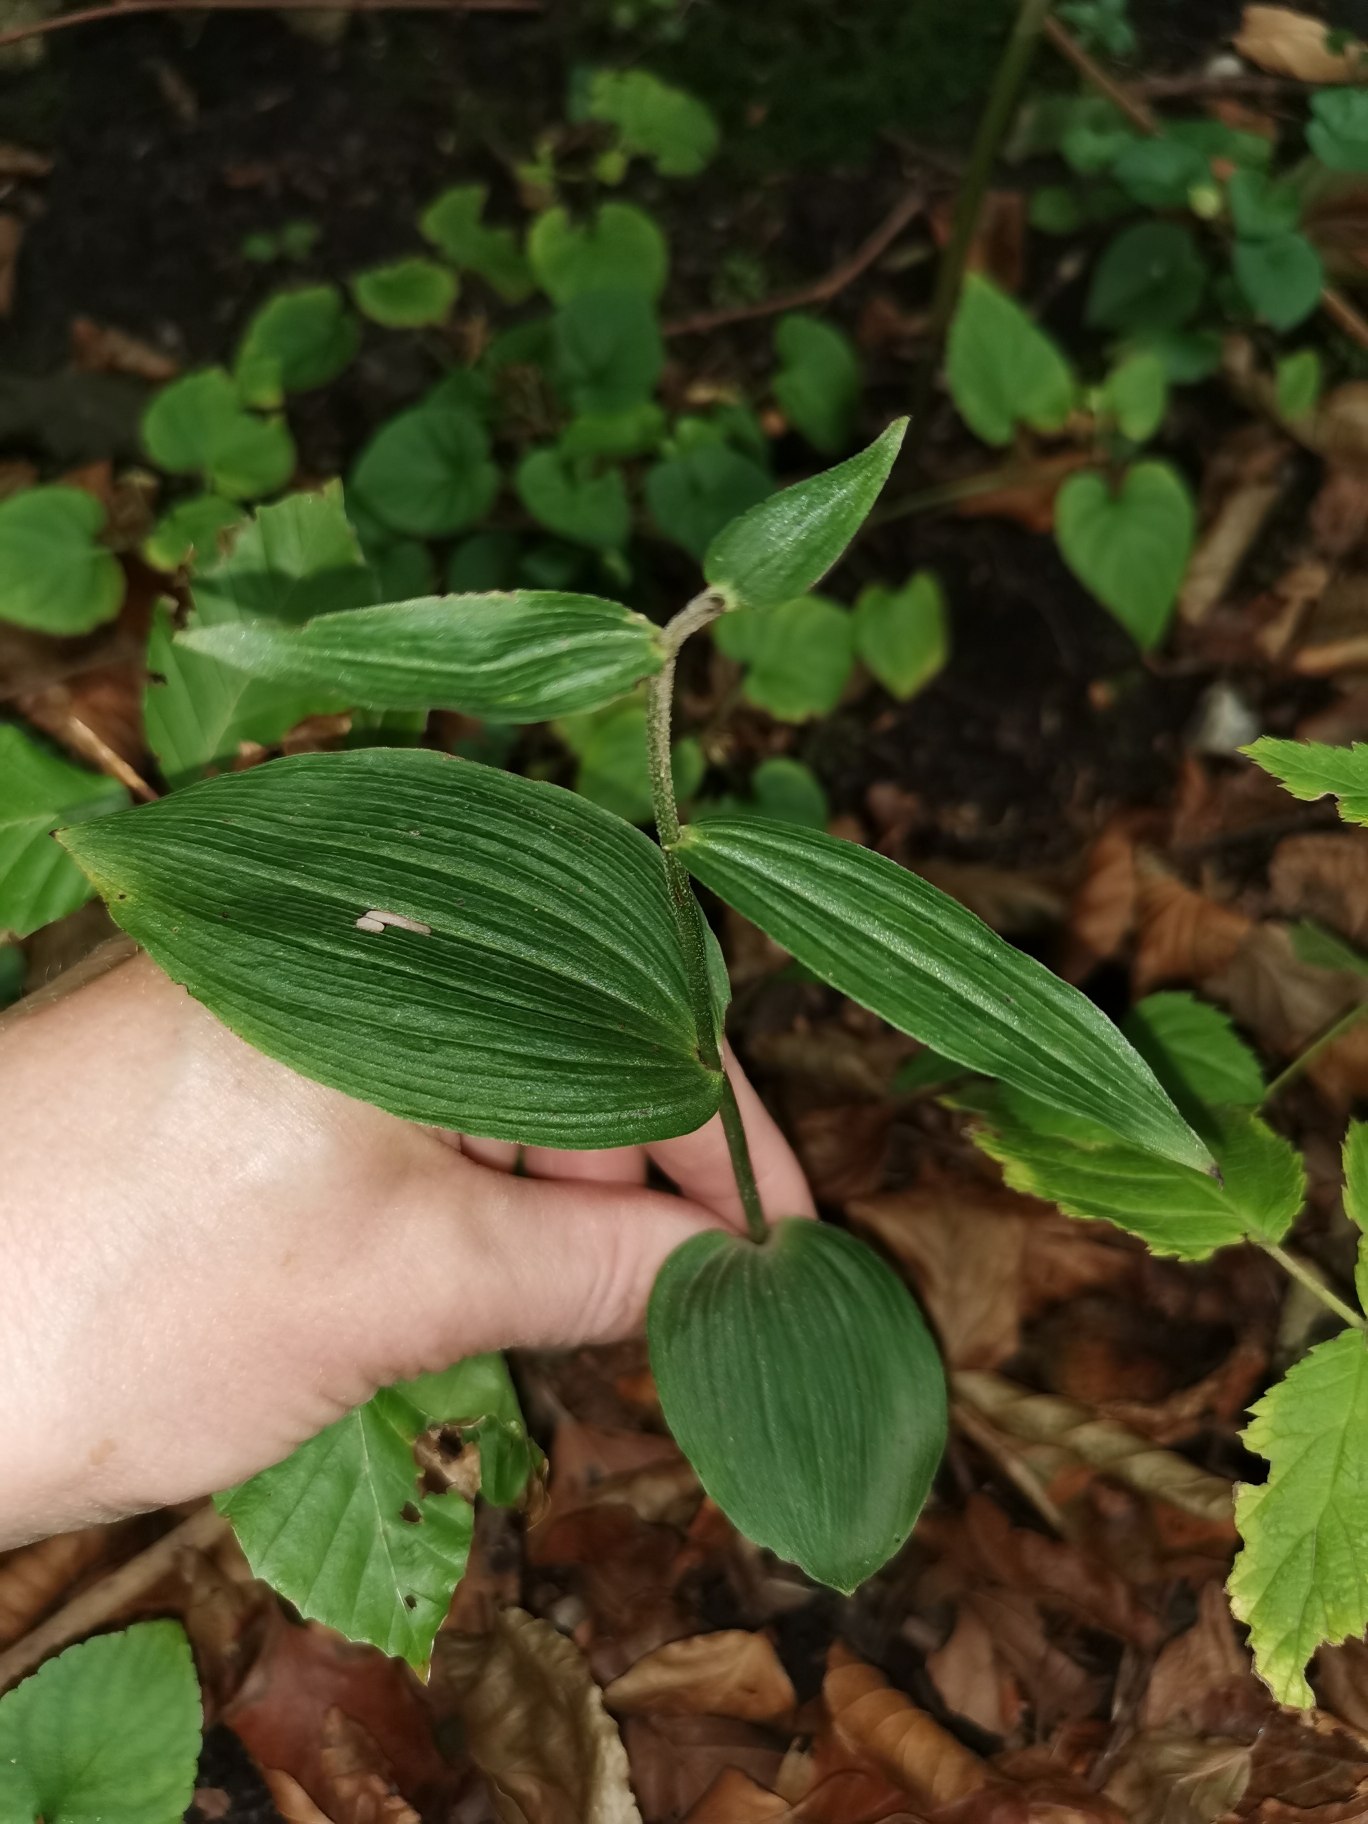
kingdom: Plantae
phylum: Tracheophyta
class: Liliopsida
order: Asparagales
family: Orchidaceae
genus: Epipactis
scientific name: Epipactis helleborine
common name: Skov-hullæbe
